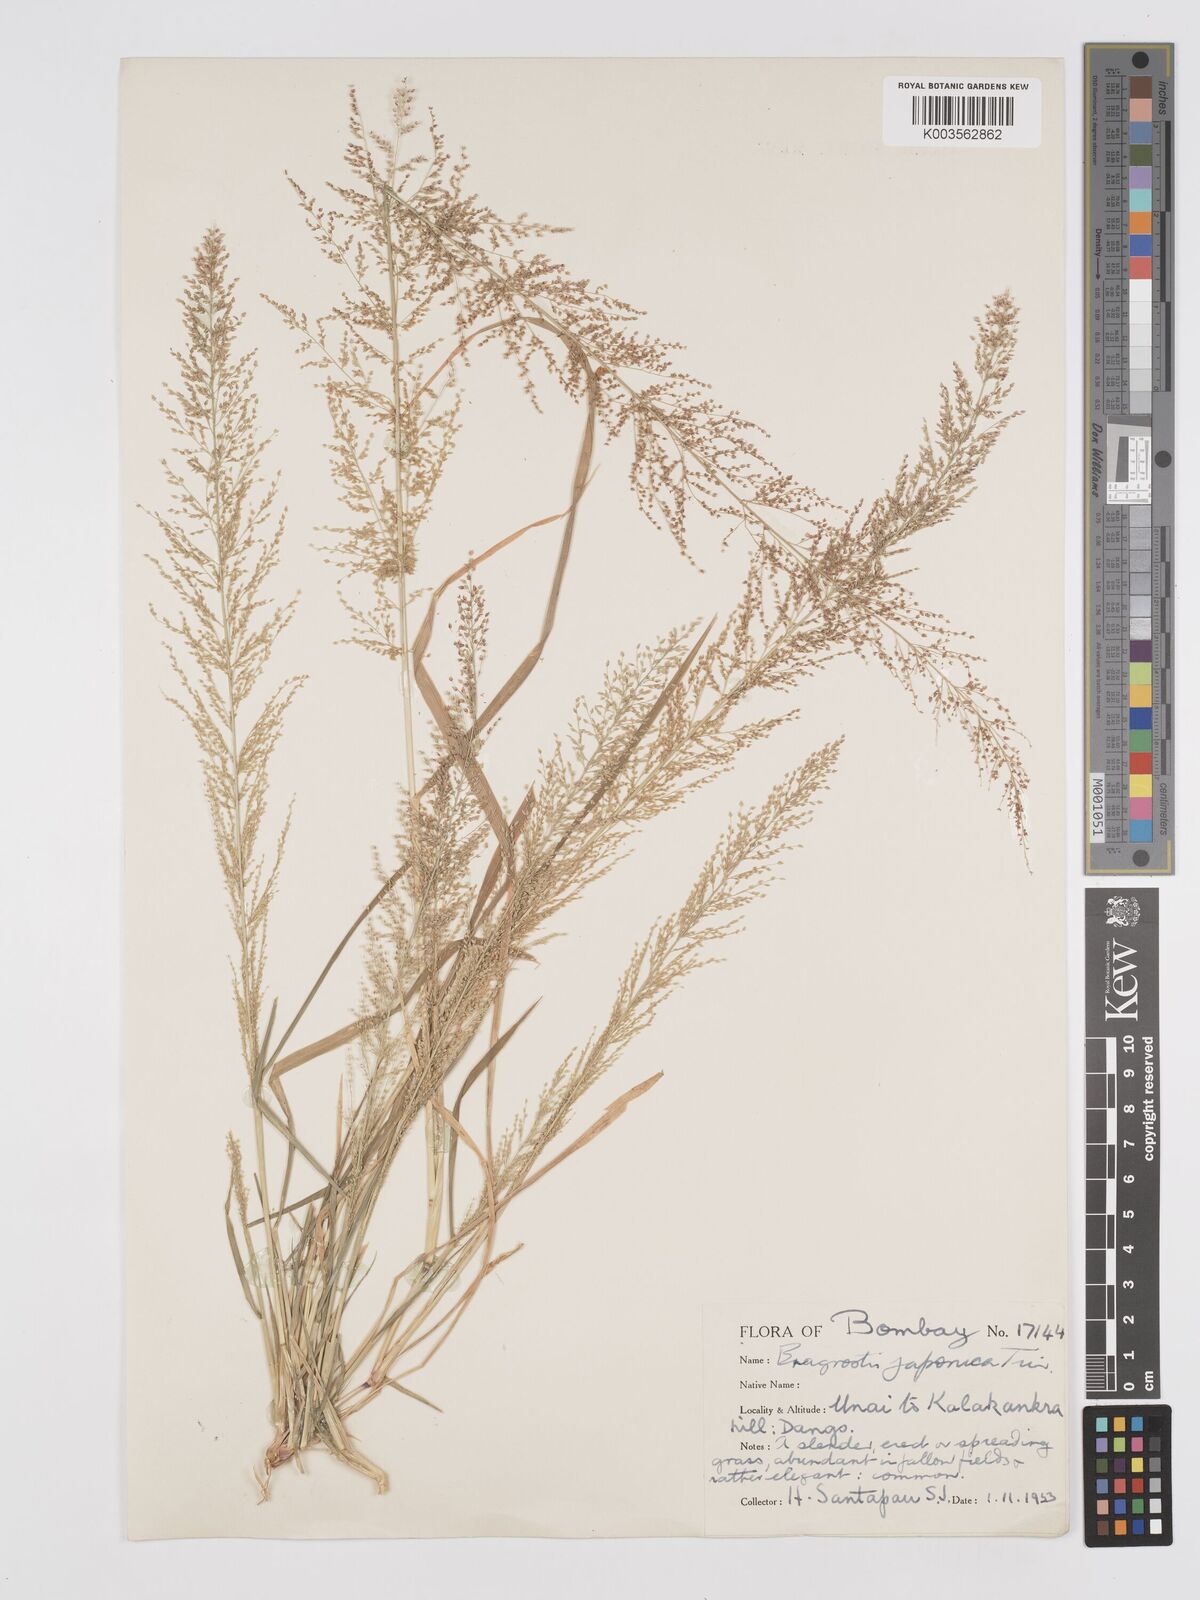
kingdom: Plantae
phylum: Tracheophyta
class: Liliopsida
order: Poales
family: Poaceae
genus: Eragrostis
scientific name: Eragrostis japonica
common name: Pond lovegrass
